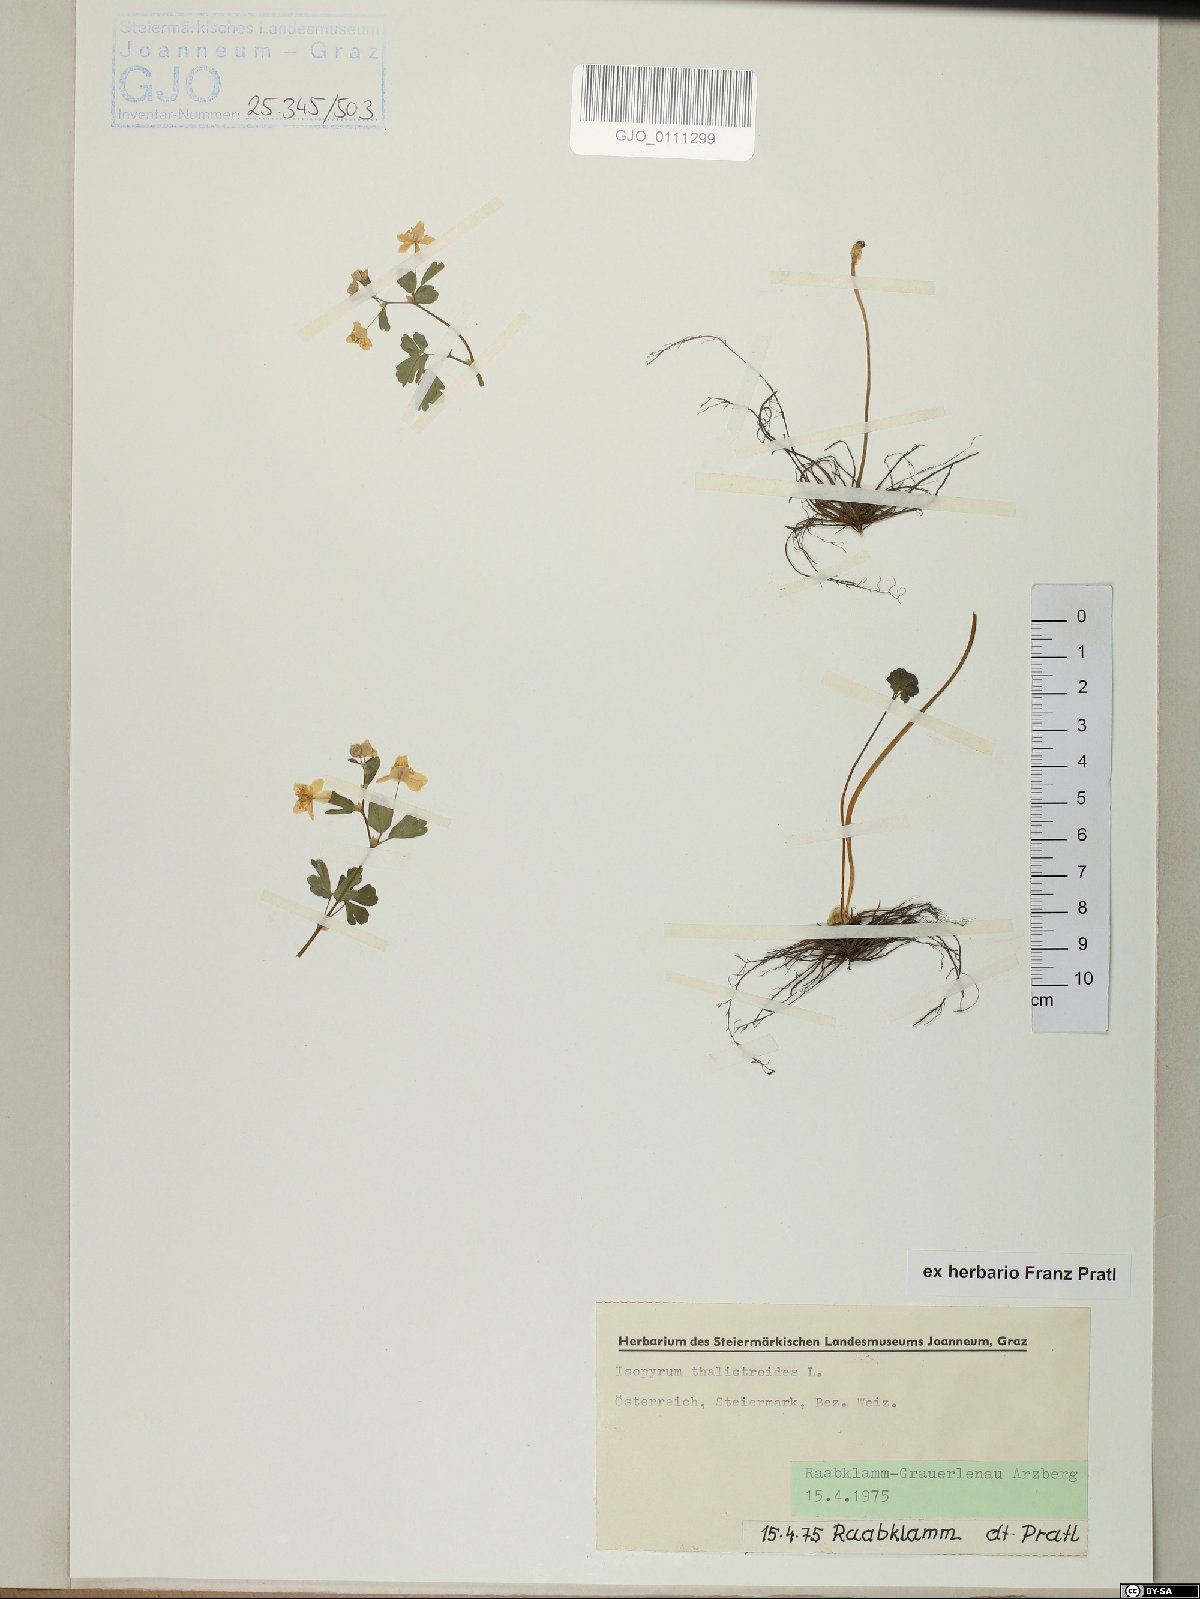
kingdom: Plantae
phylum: Tracheophyta
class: Magnoliopsida
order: Ranunculales
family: Ranunculaceae
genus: Isopyrum
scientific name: Isopyrum thalictroides
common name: Isopyrum
